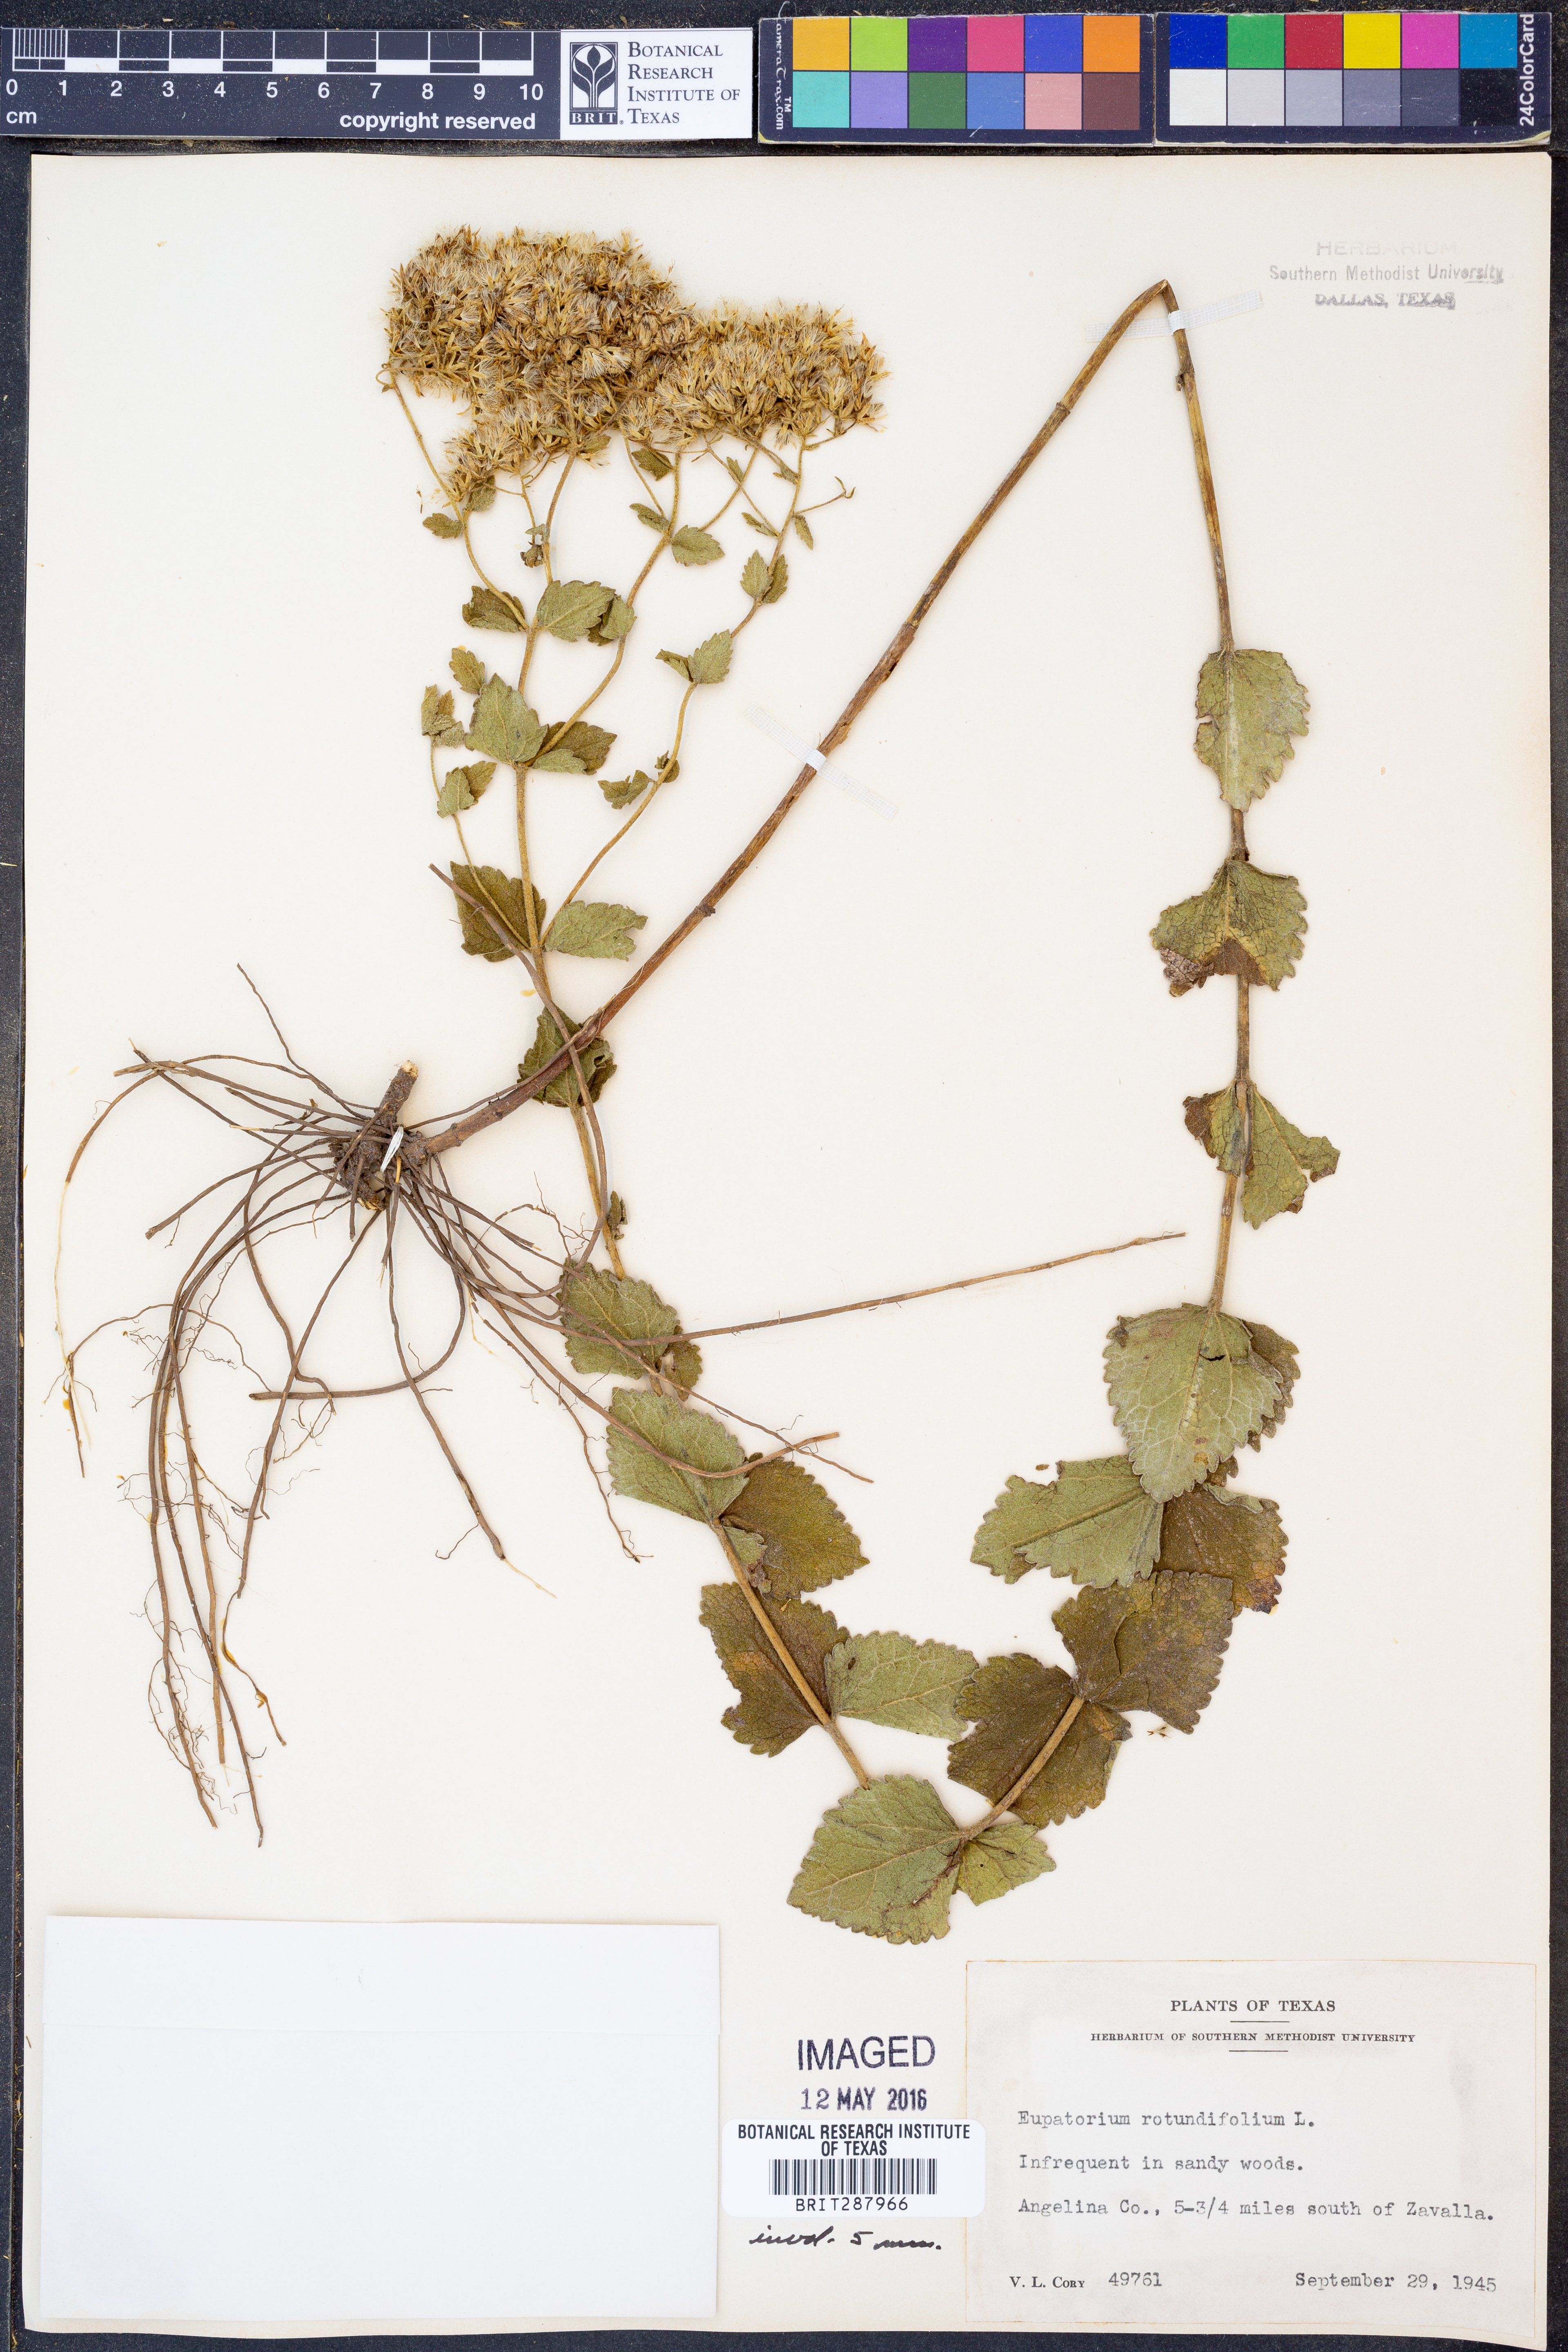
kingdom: Plantae
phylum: Tracheophyta
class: Magnoliopsida
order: Asterales
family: Asteraceae
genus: Eupatorium
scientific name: Eupatorium rotundifolium
